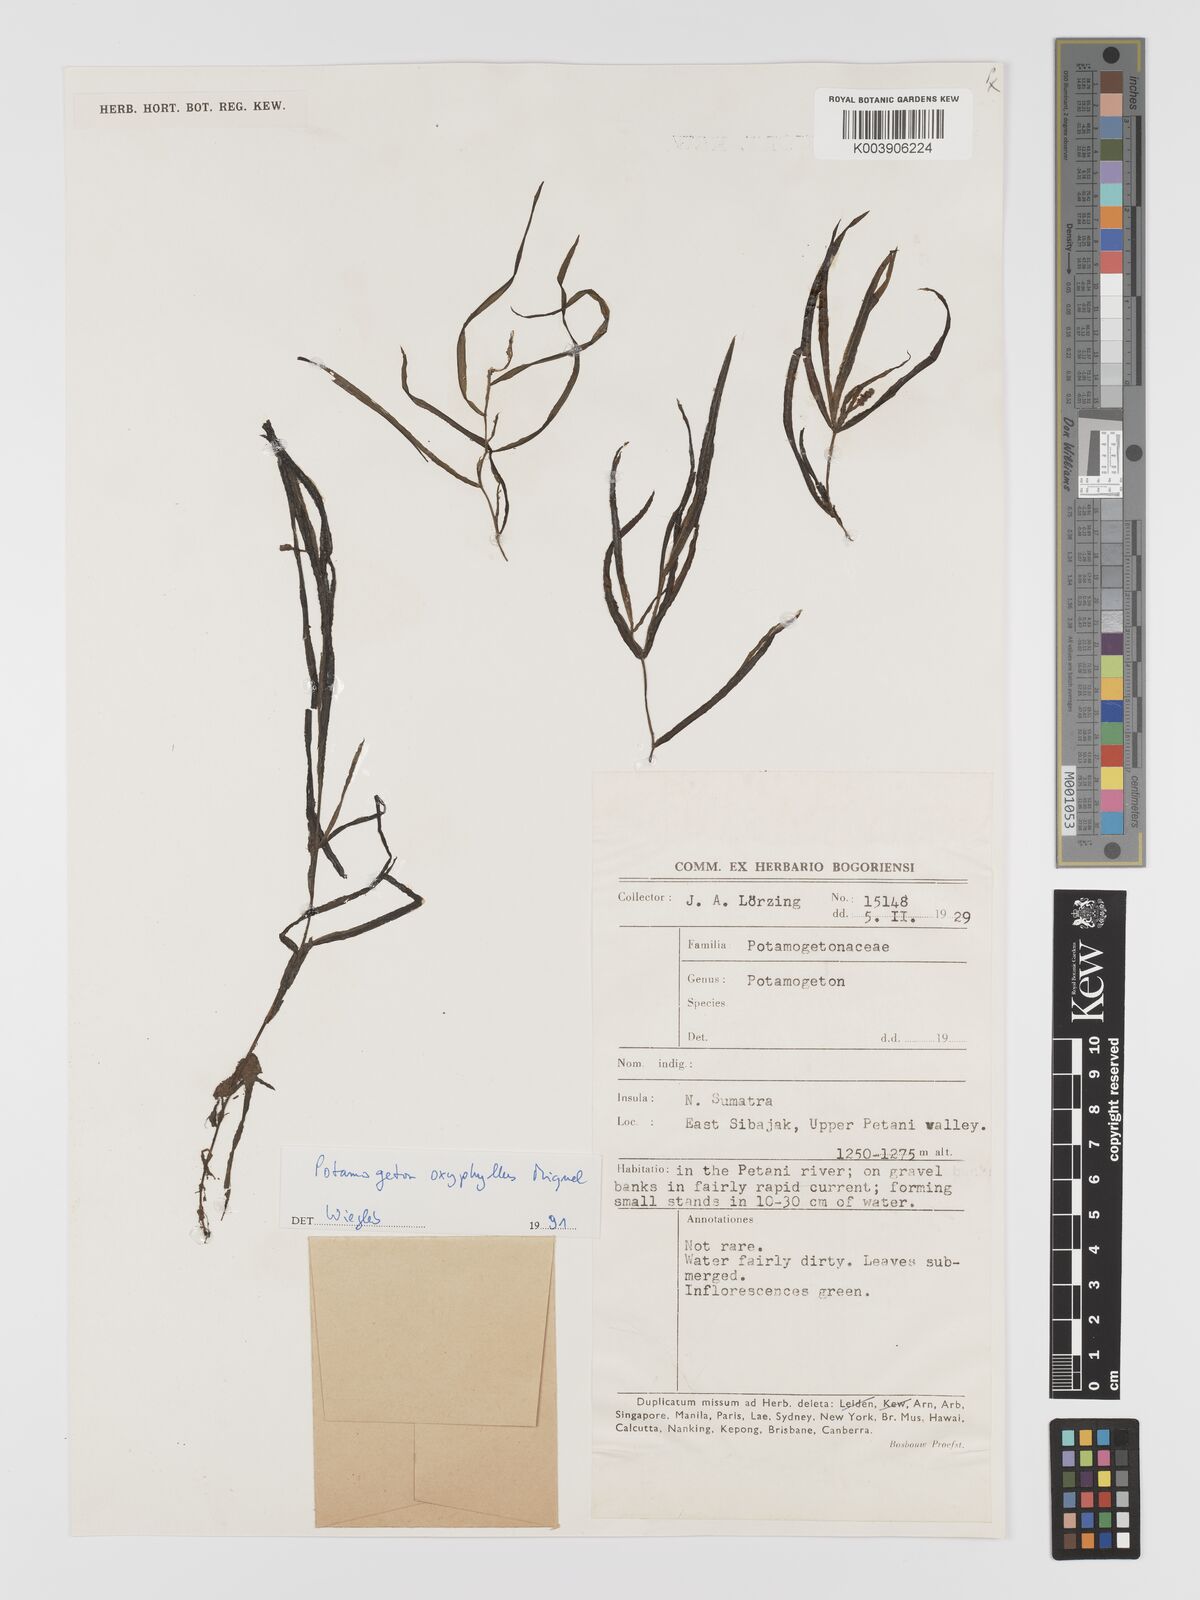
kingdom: Plantae
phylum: Tracheophyta
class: Liliopsida
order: Alismatales
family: Potamogetonaceae
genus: Potamogeton
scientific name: Potamogeton oxyphyllus
